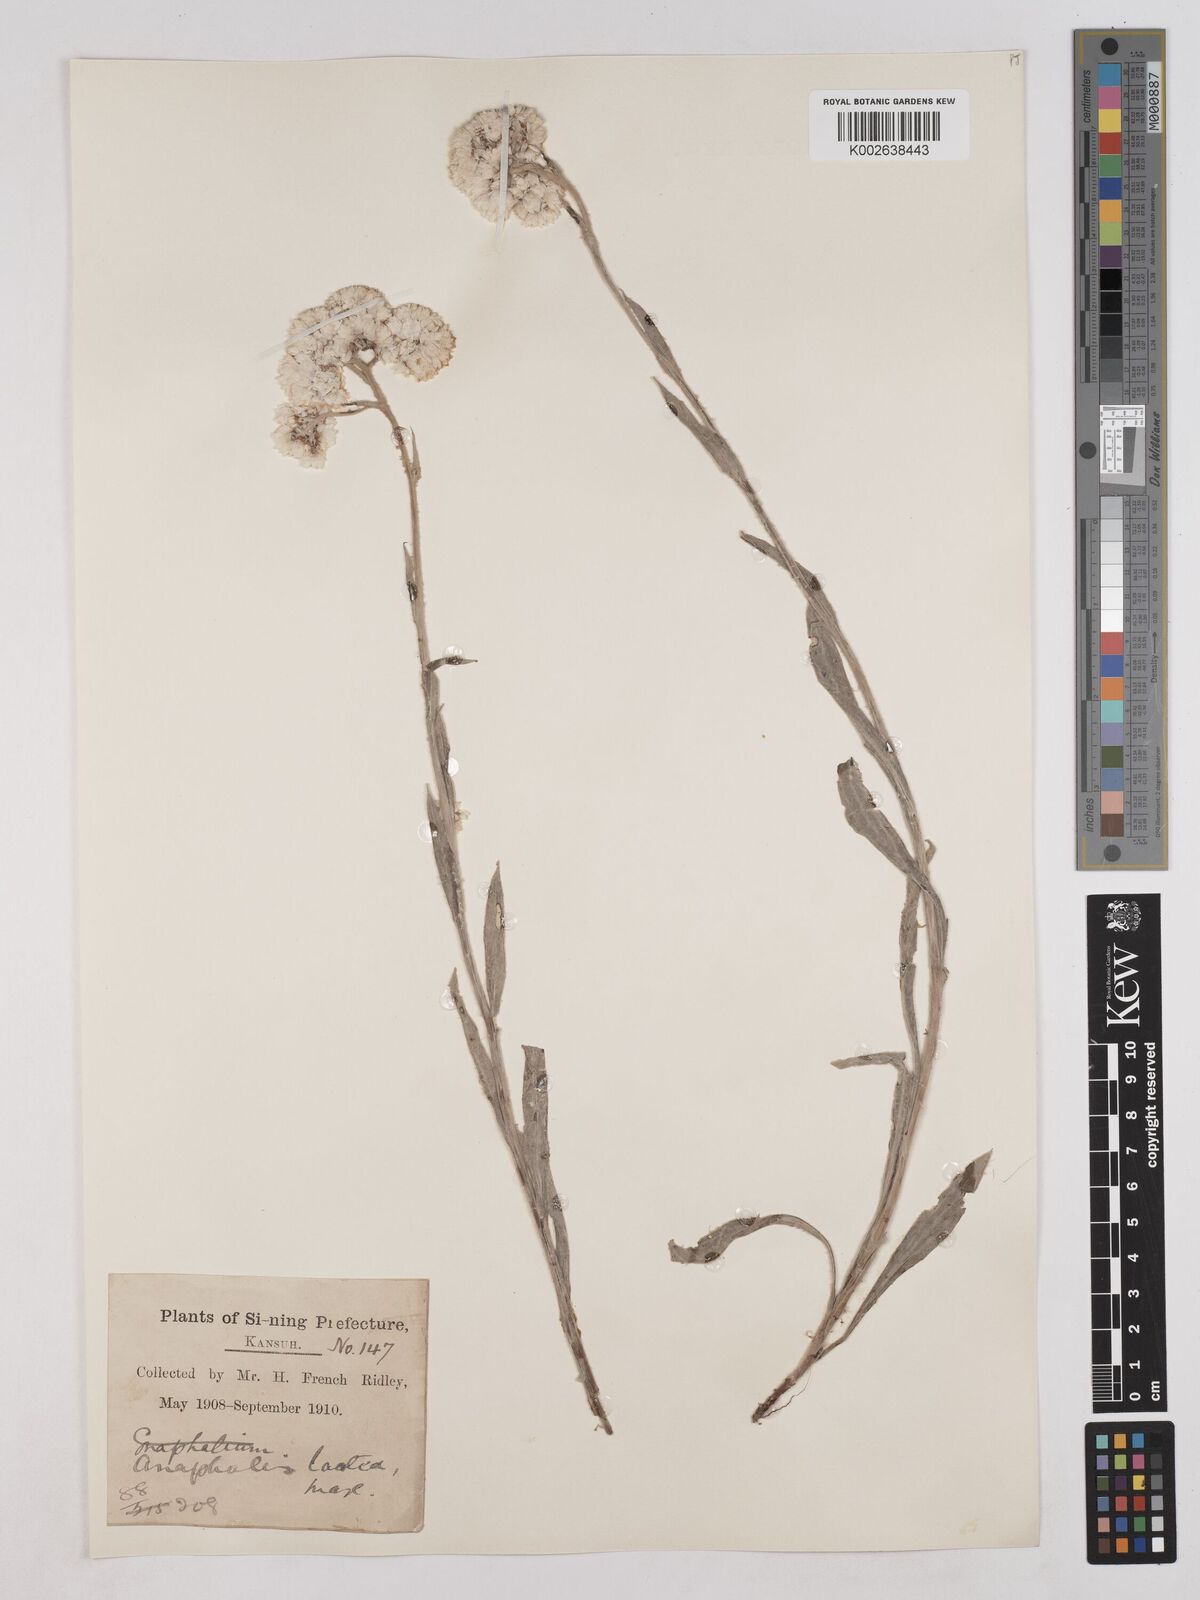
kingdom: Plantae
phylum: Tracheophyta
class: Magnoliopsida
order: Asterales
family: Asteraceae
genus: Anaphalis
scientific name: Anaphalis lactea
